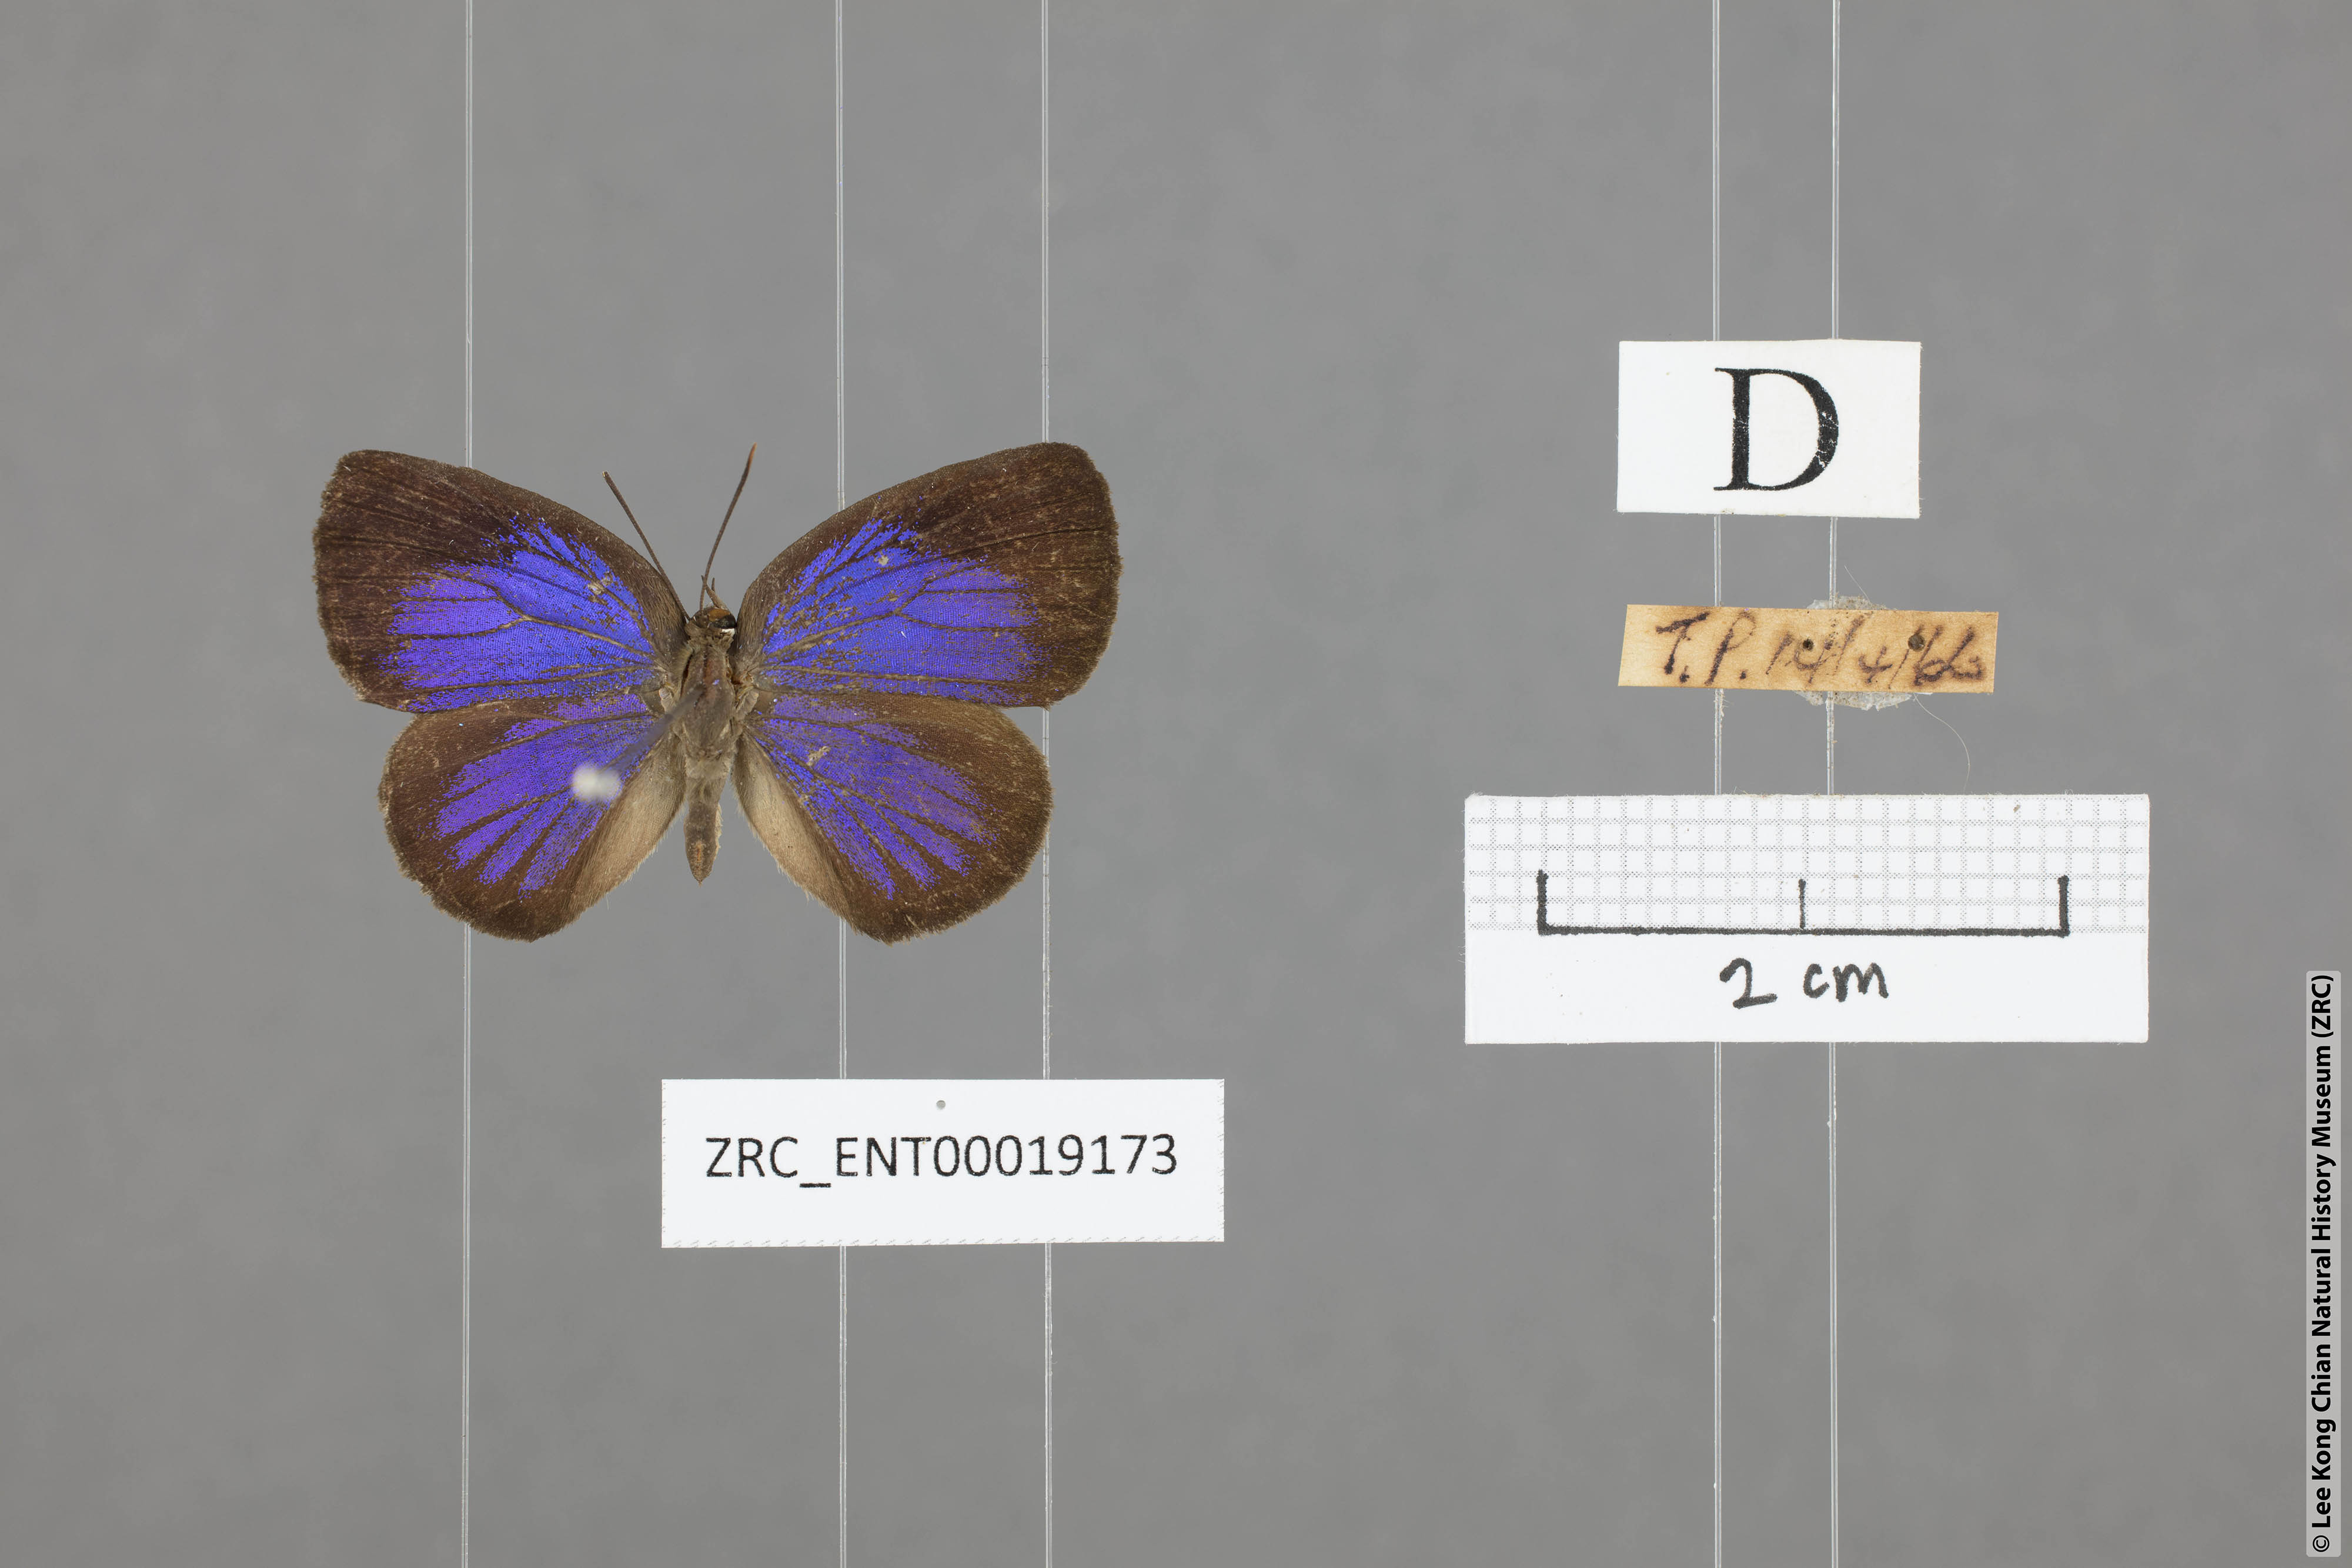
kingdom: Animalia
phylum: Arthropoda
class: Insecta
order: Lepidoptera
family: Lycaenidae
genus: Arhopala
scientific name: Arhopala antimuta
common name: Small tailless oakblue
